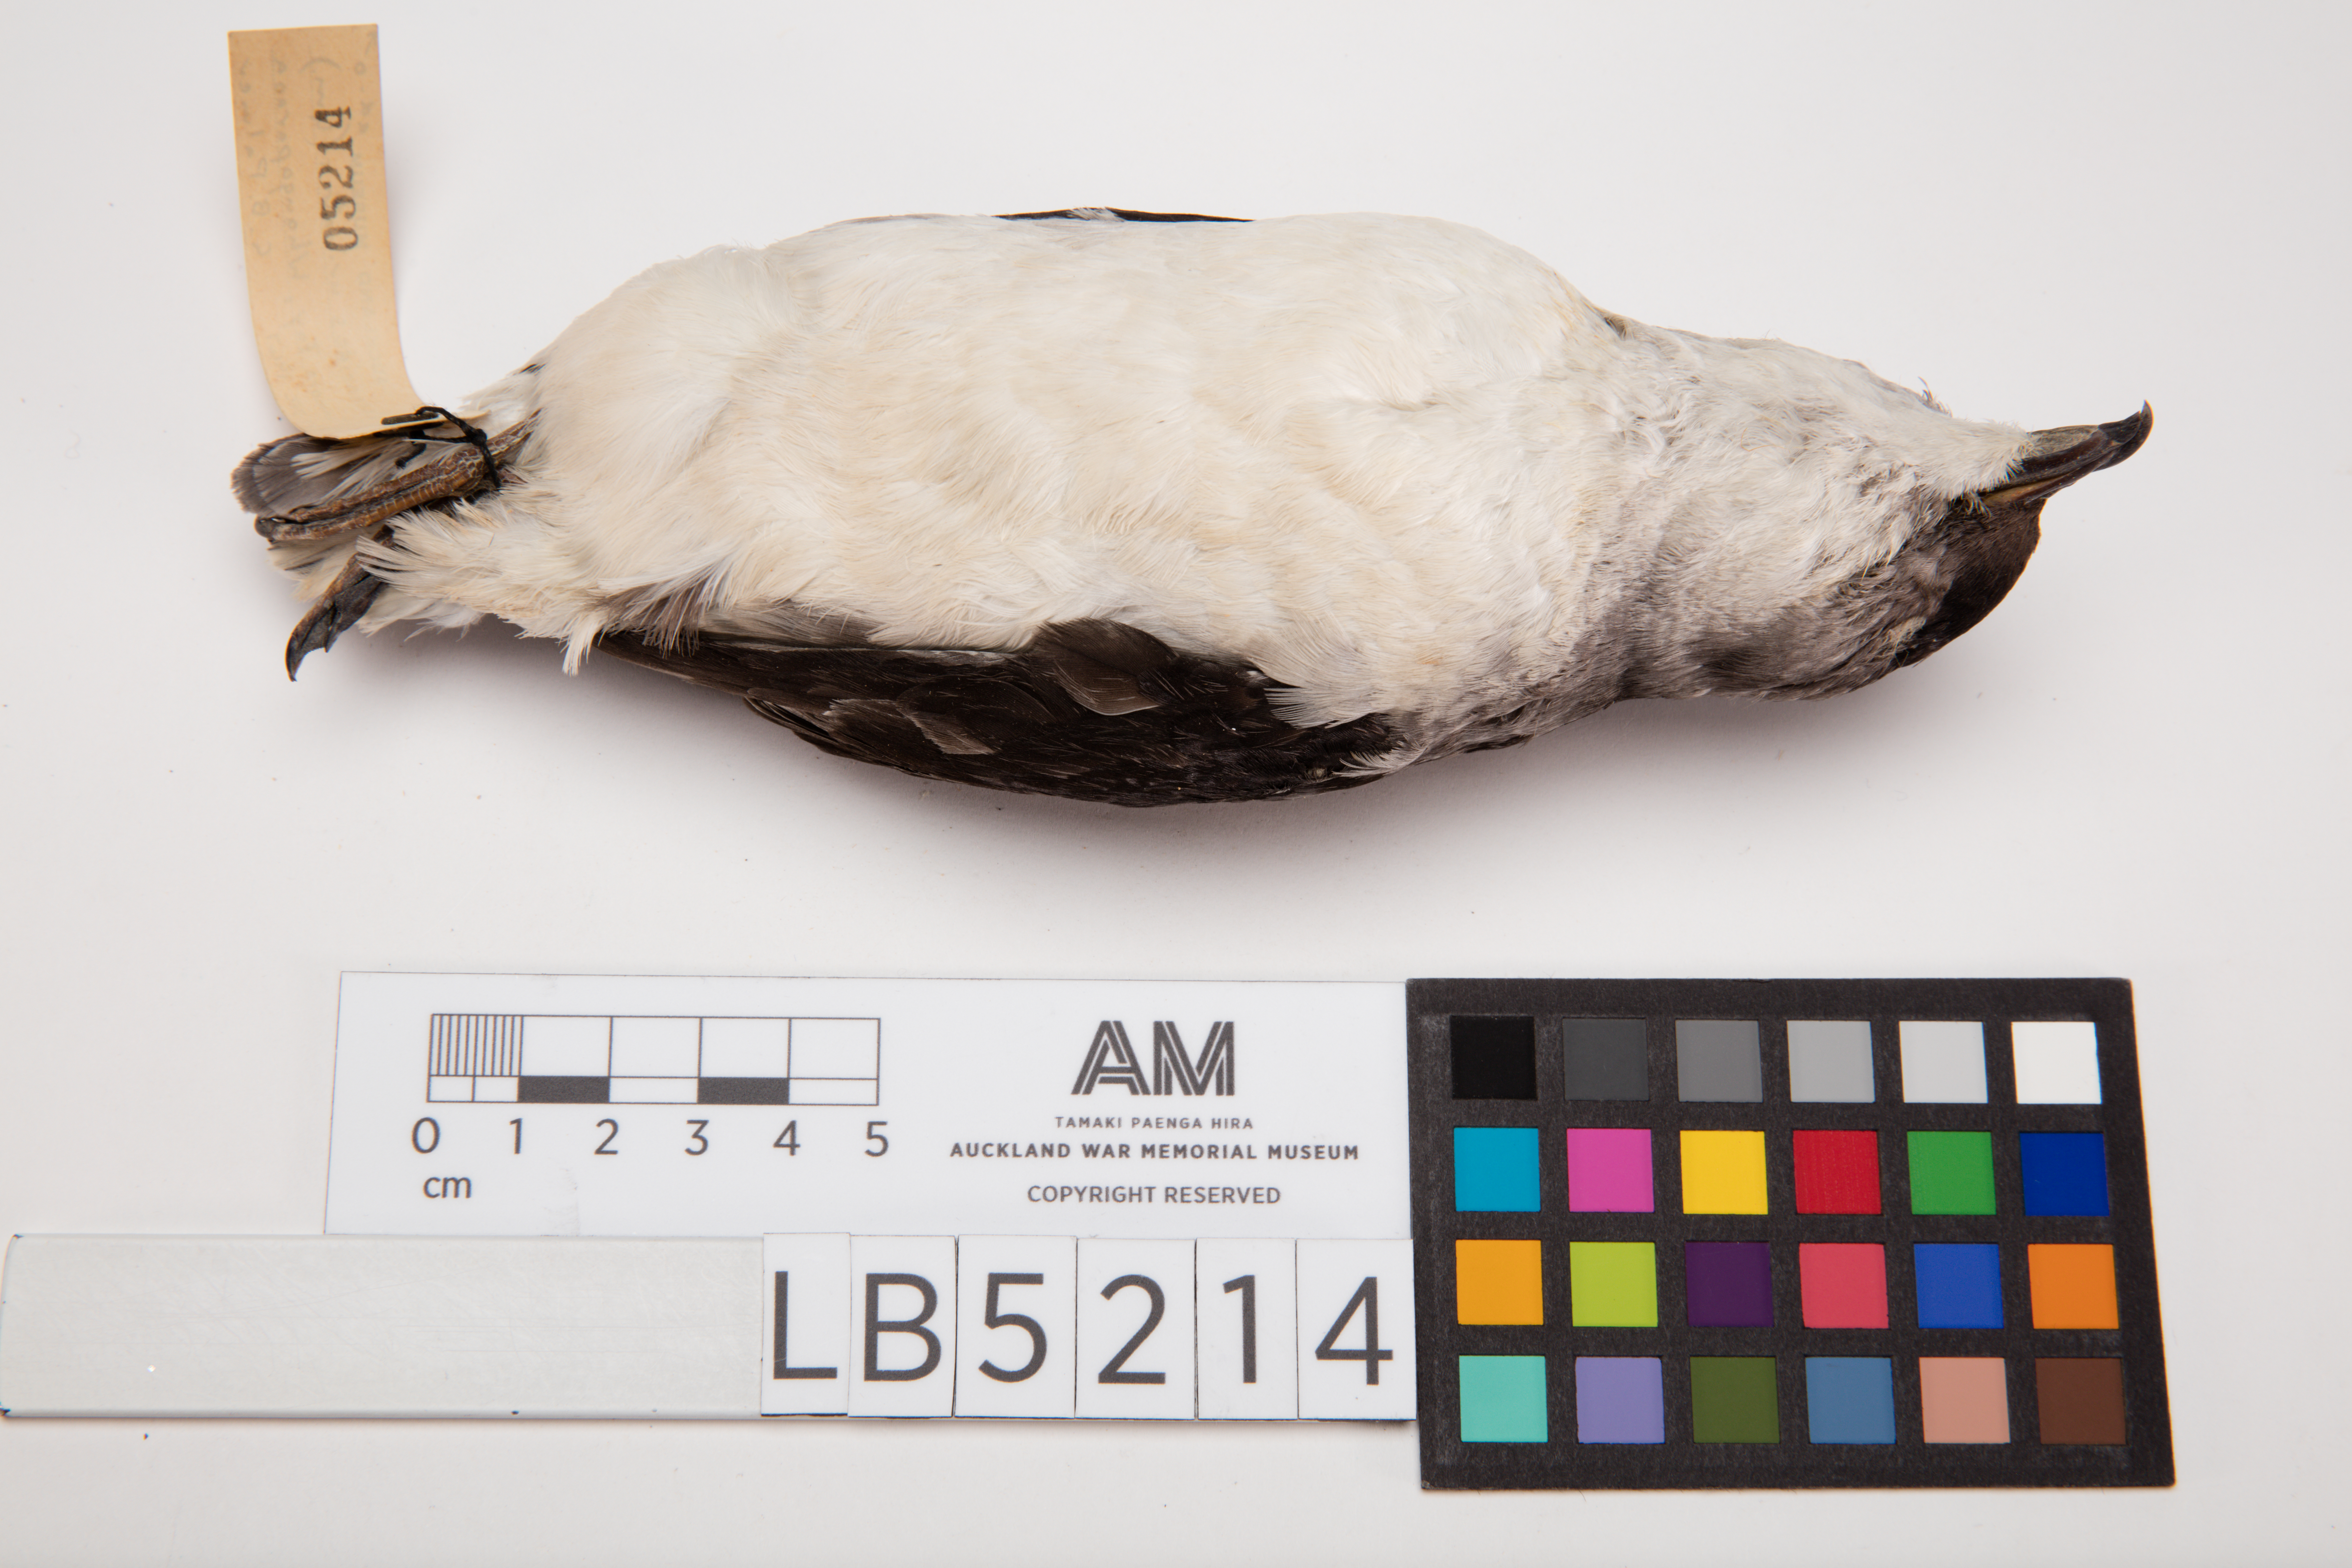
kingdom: Animalia
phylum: Chordata
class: Aves
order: Procellariiformes
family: Pelecanoididae
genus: Pelecanoides
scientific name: Pelecanoides urinatrix
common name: Common diving-petrel
